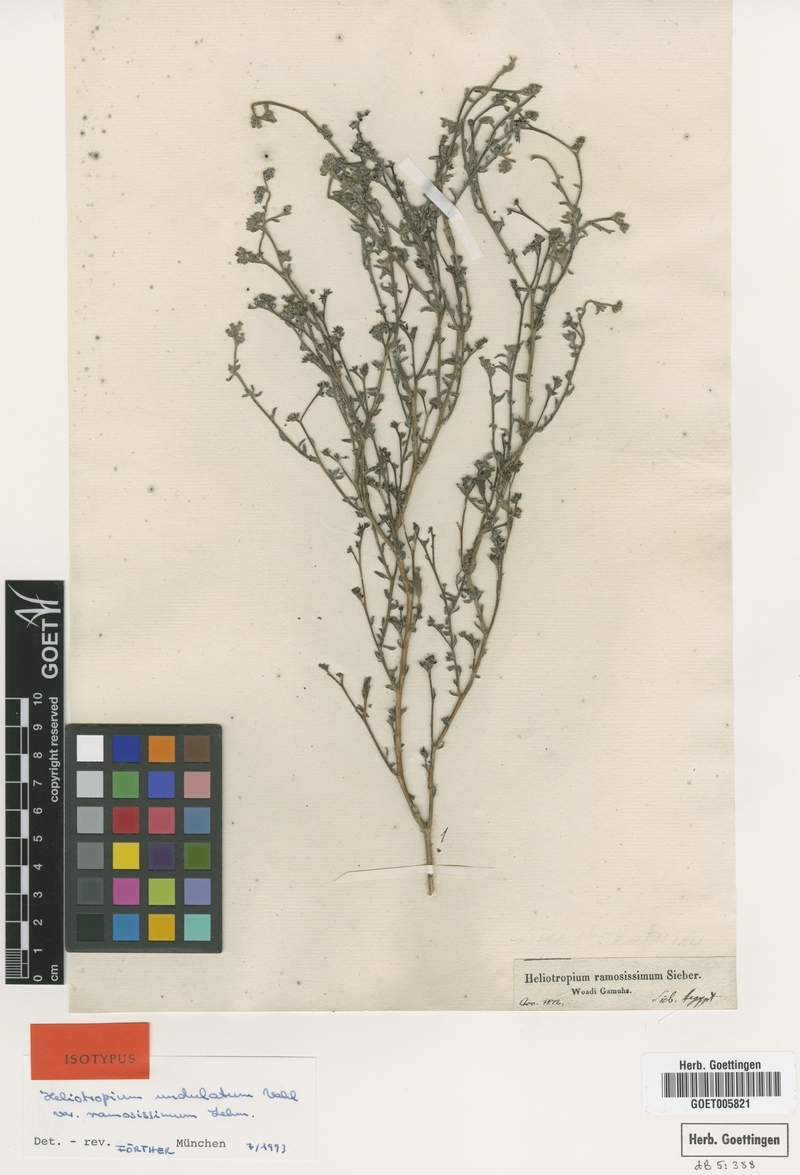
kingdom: Plantae
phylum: Tracheophyta
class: Magnoliopsida
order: Boraginales
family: Heliotropiaceae
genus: Heliotropium
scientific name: Heliotropium ramosissimum
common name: Wavy heliotrope
